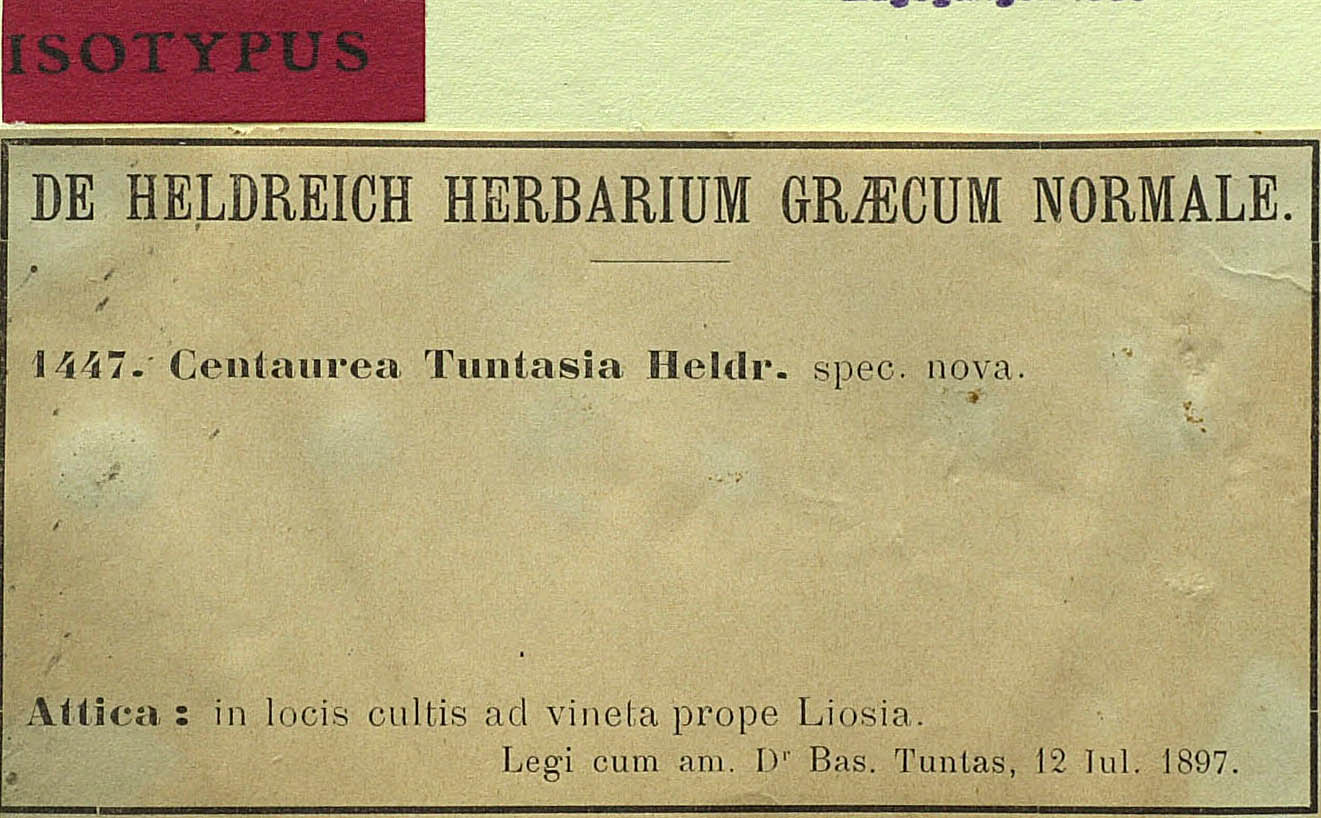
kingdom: Plantae
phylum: Tracheophyta
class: Magnoliopsida
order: Asterales
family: Asteraceae
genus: Centaurea
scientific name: Centaurea tuntasia
